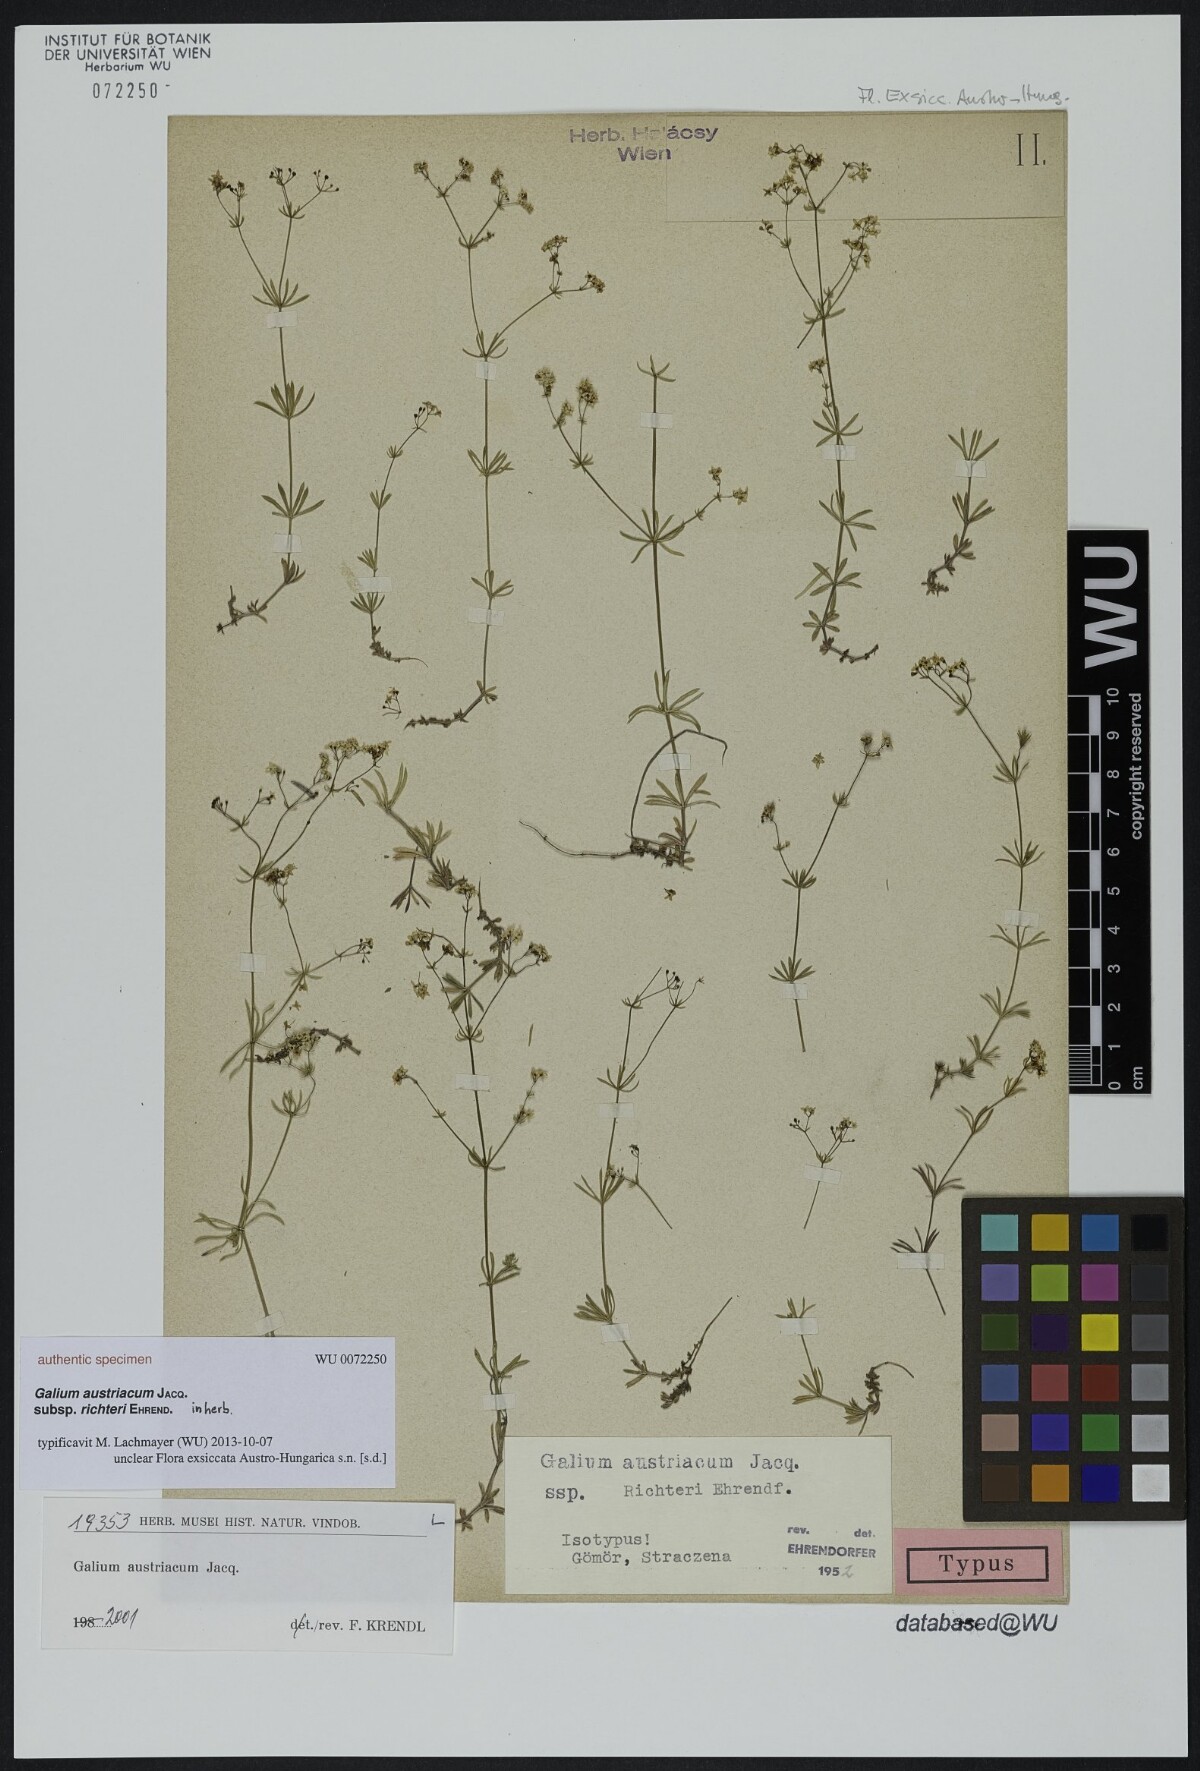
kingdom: Plantae
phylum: Tracheophyta
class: Magnoliopsida
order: Gentianales
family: Rubiaceae
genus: Galium
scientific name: Galium austriacum
